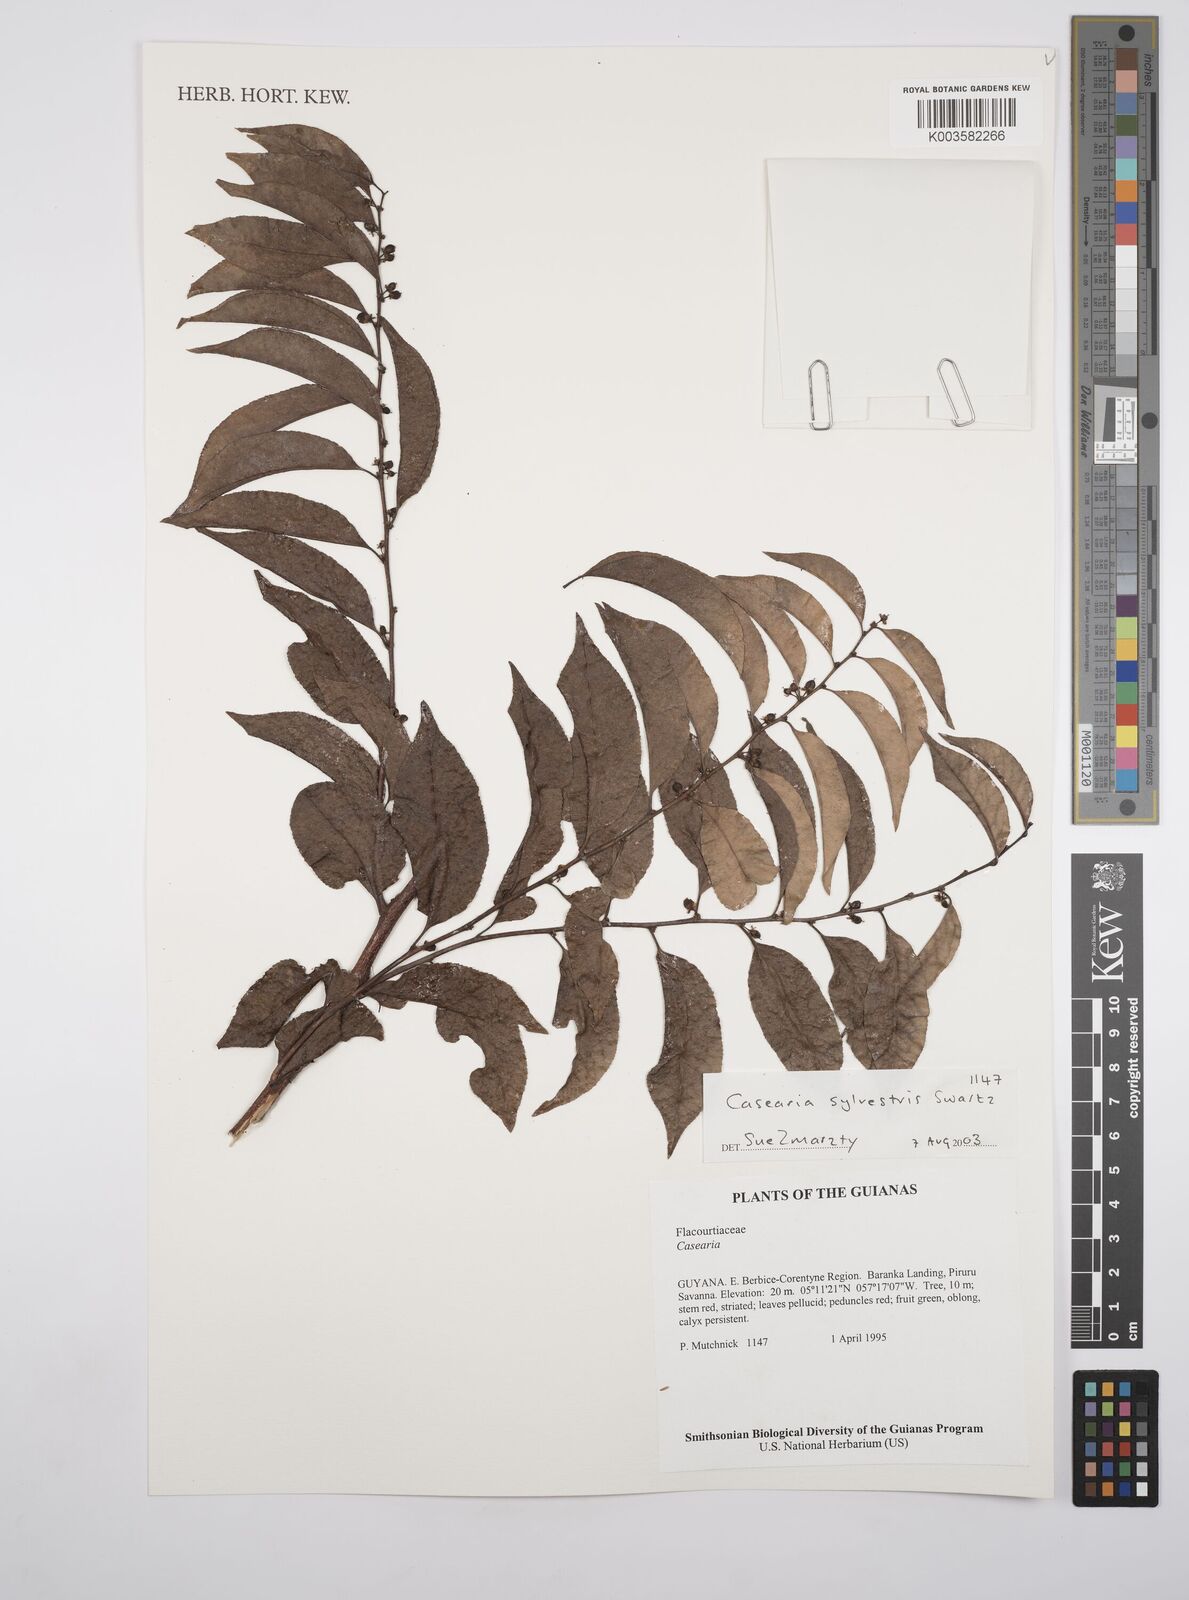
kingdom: Plantae
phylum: Tracheophyta
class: Magnoliopsida
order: Malpighiales
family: Salicaceae
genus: Casearia
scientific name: Casearia sylvestris
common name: Wild sage
